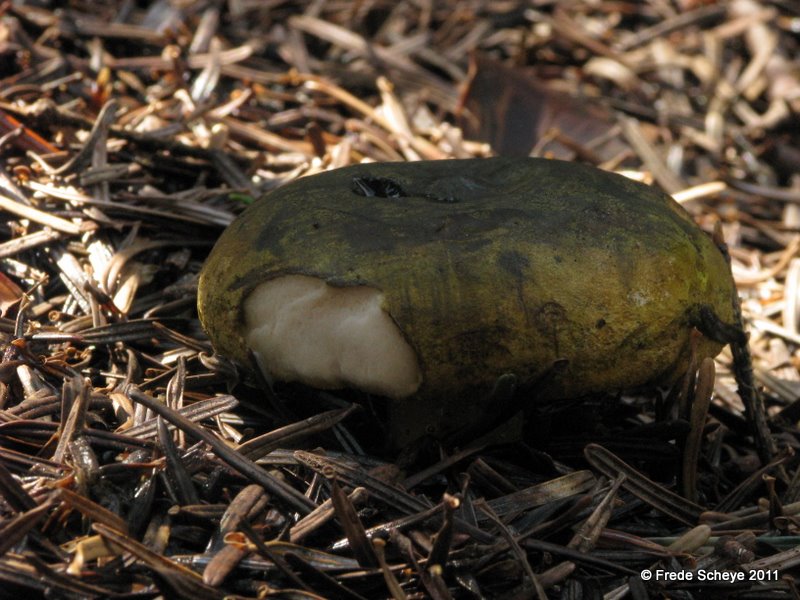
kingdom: Fungi
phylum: Basidiomycota
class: Agaricomycetes
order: Russulales
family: Russulaceae
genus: Lactarius
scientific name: Lactarius necator
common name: manddraber-mælkehat
